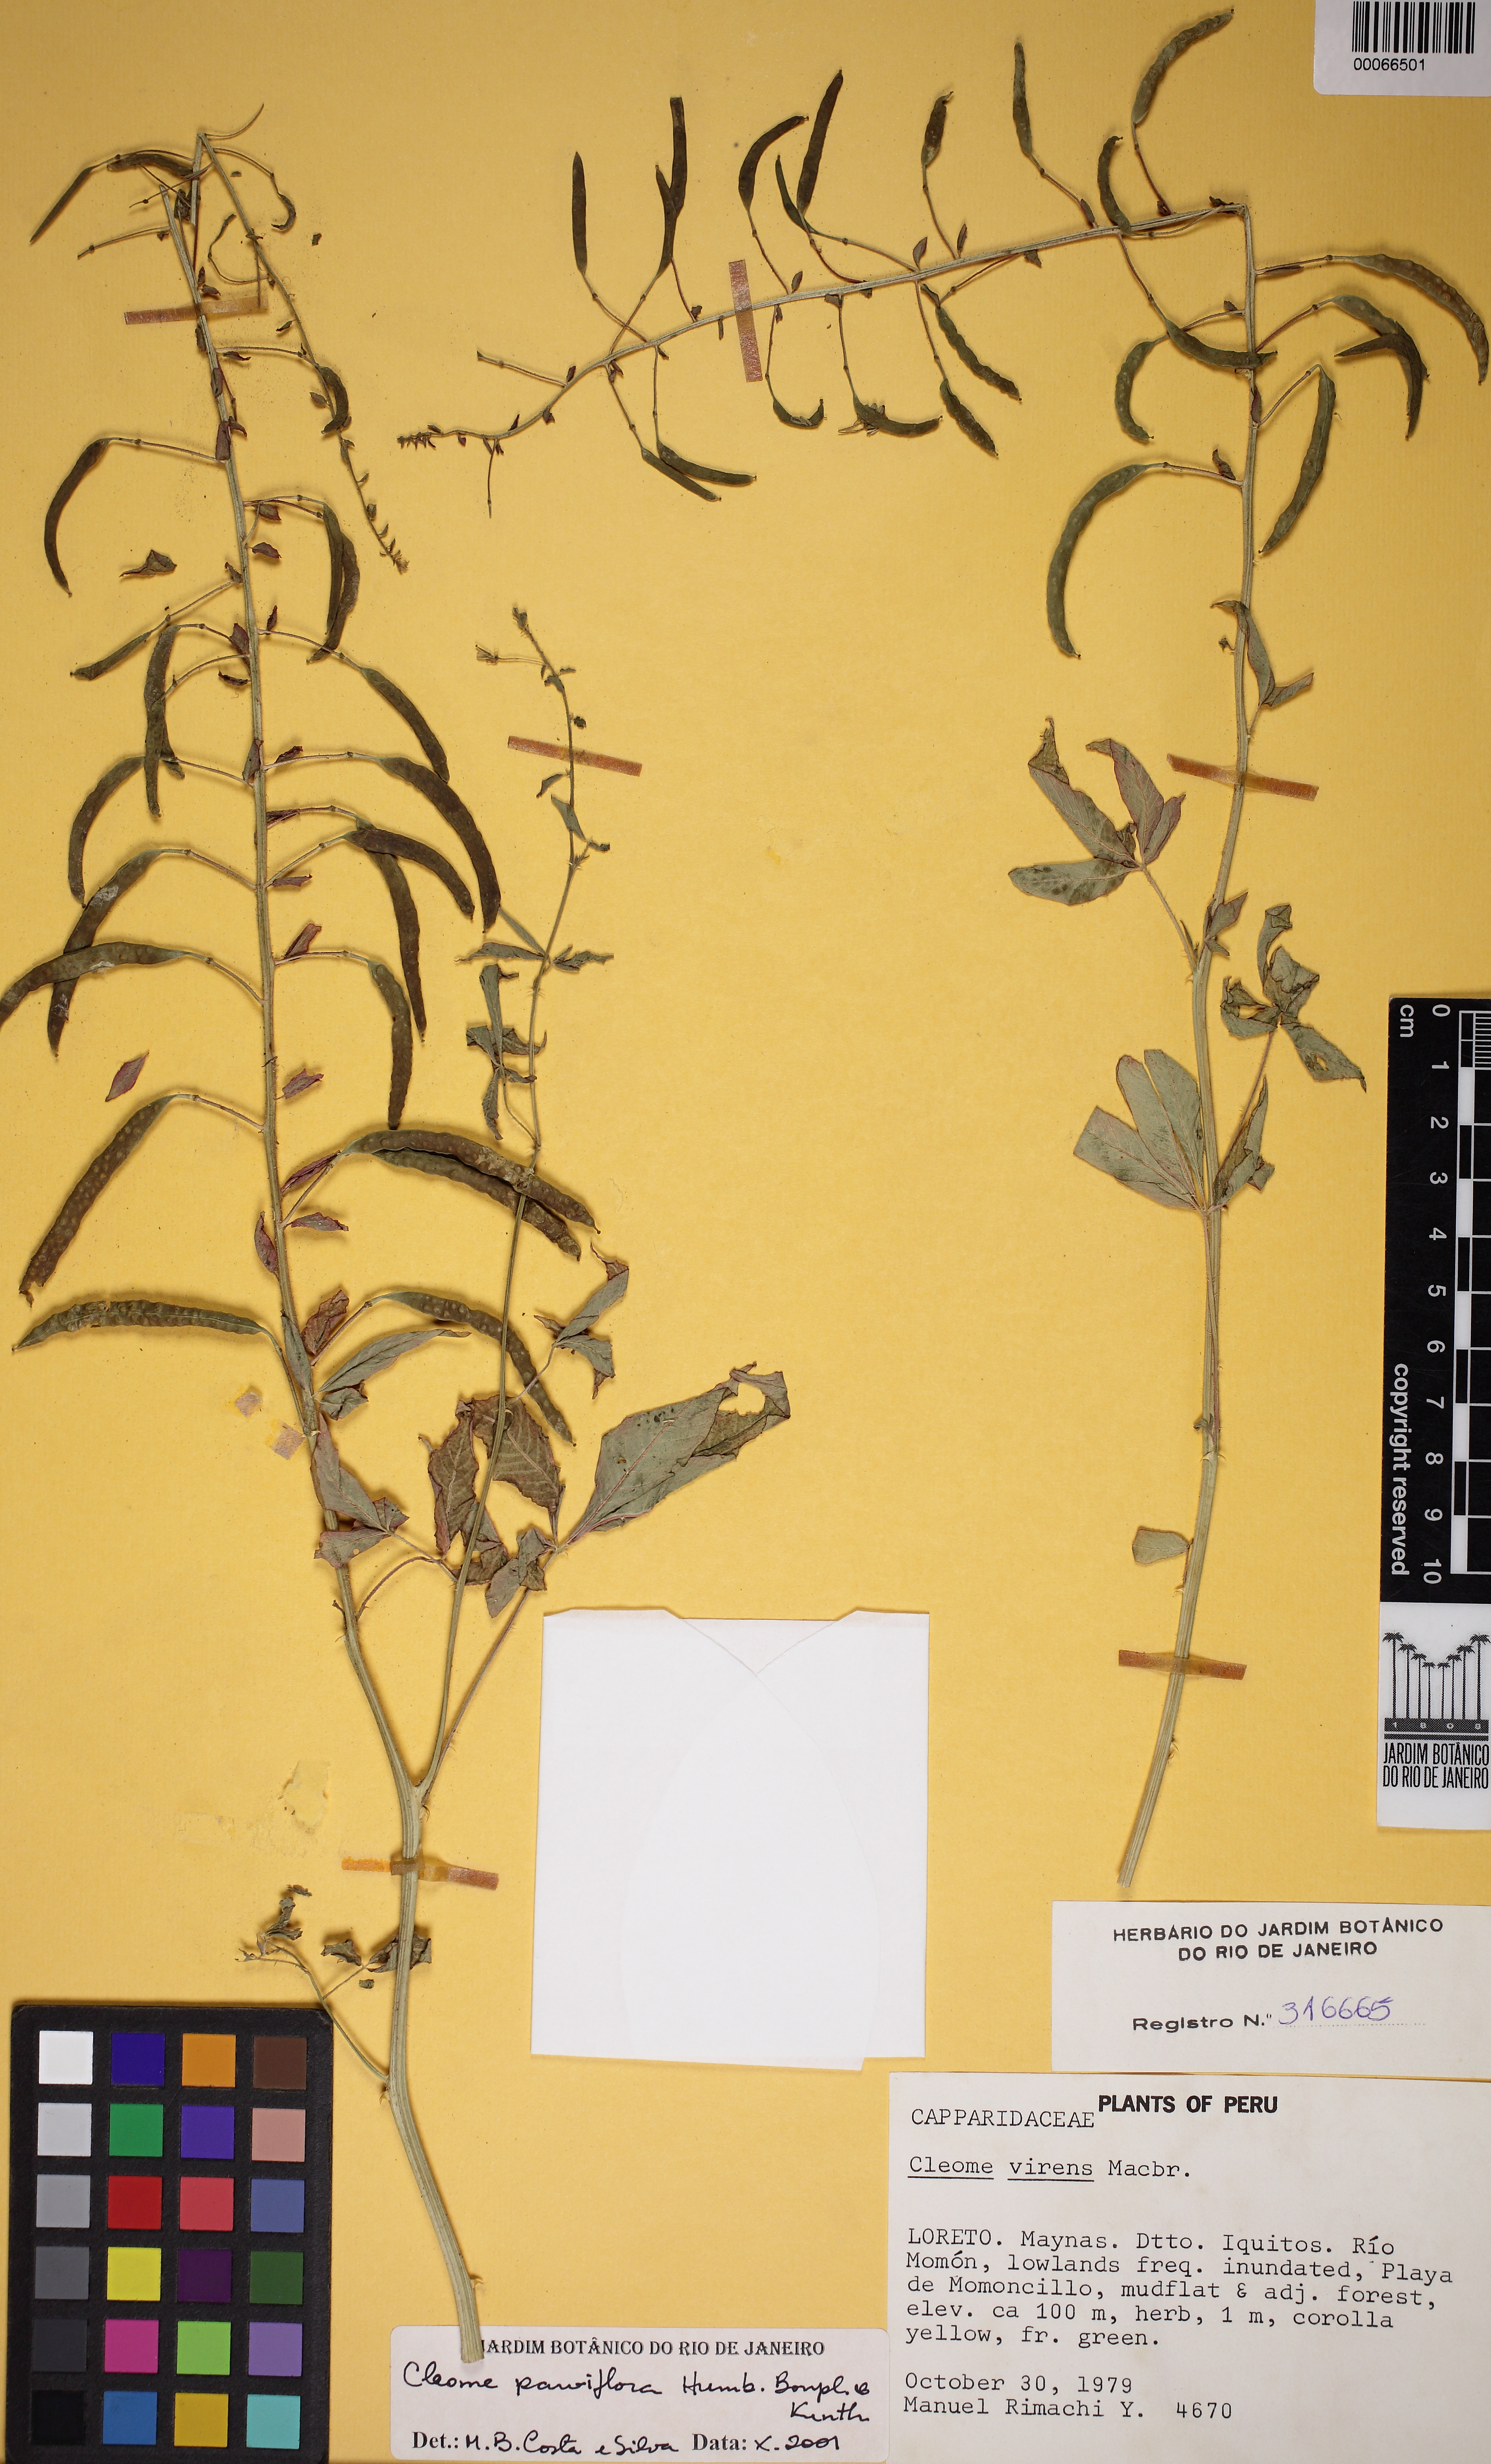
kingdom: Plantae
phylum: Tracheophyta
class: Magnoliopsida
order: Brassicales
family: Cleomaceae
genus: Tarenaya
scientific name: Tarenaya parviflora
